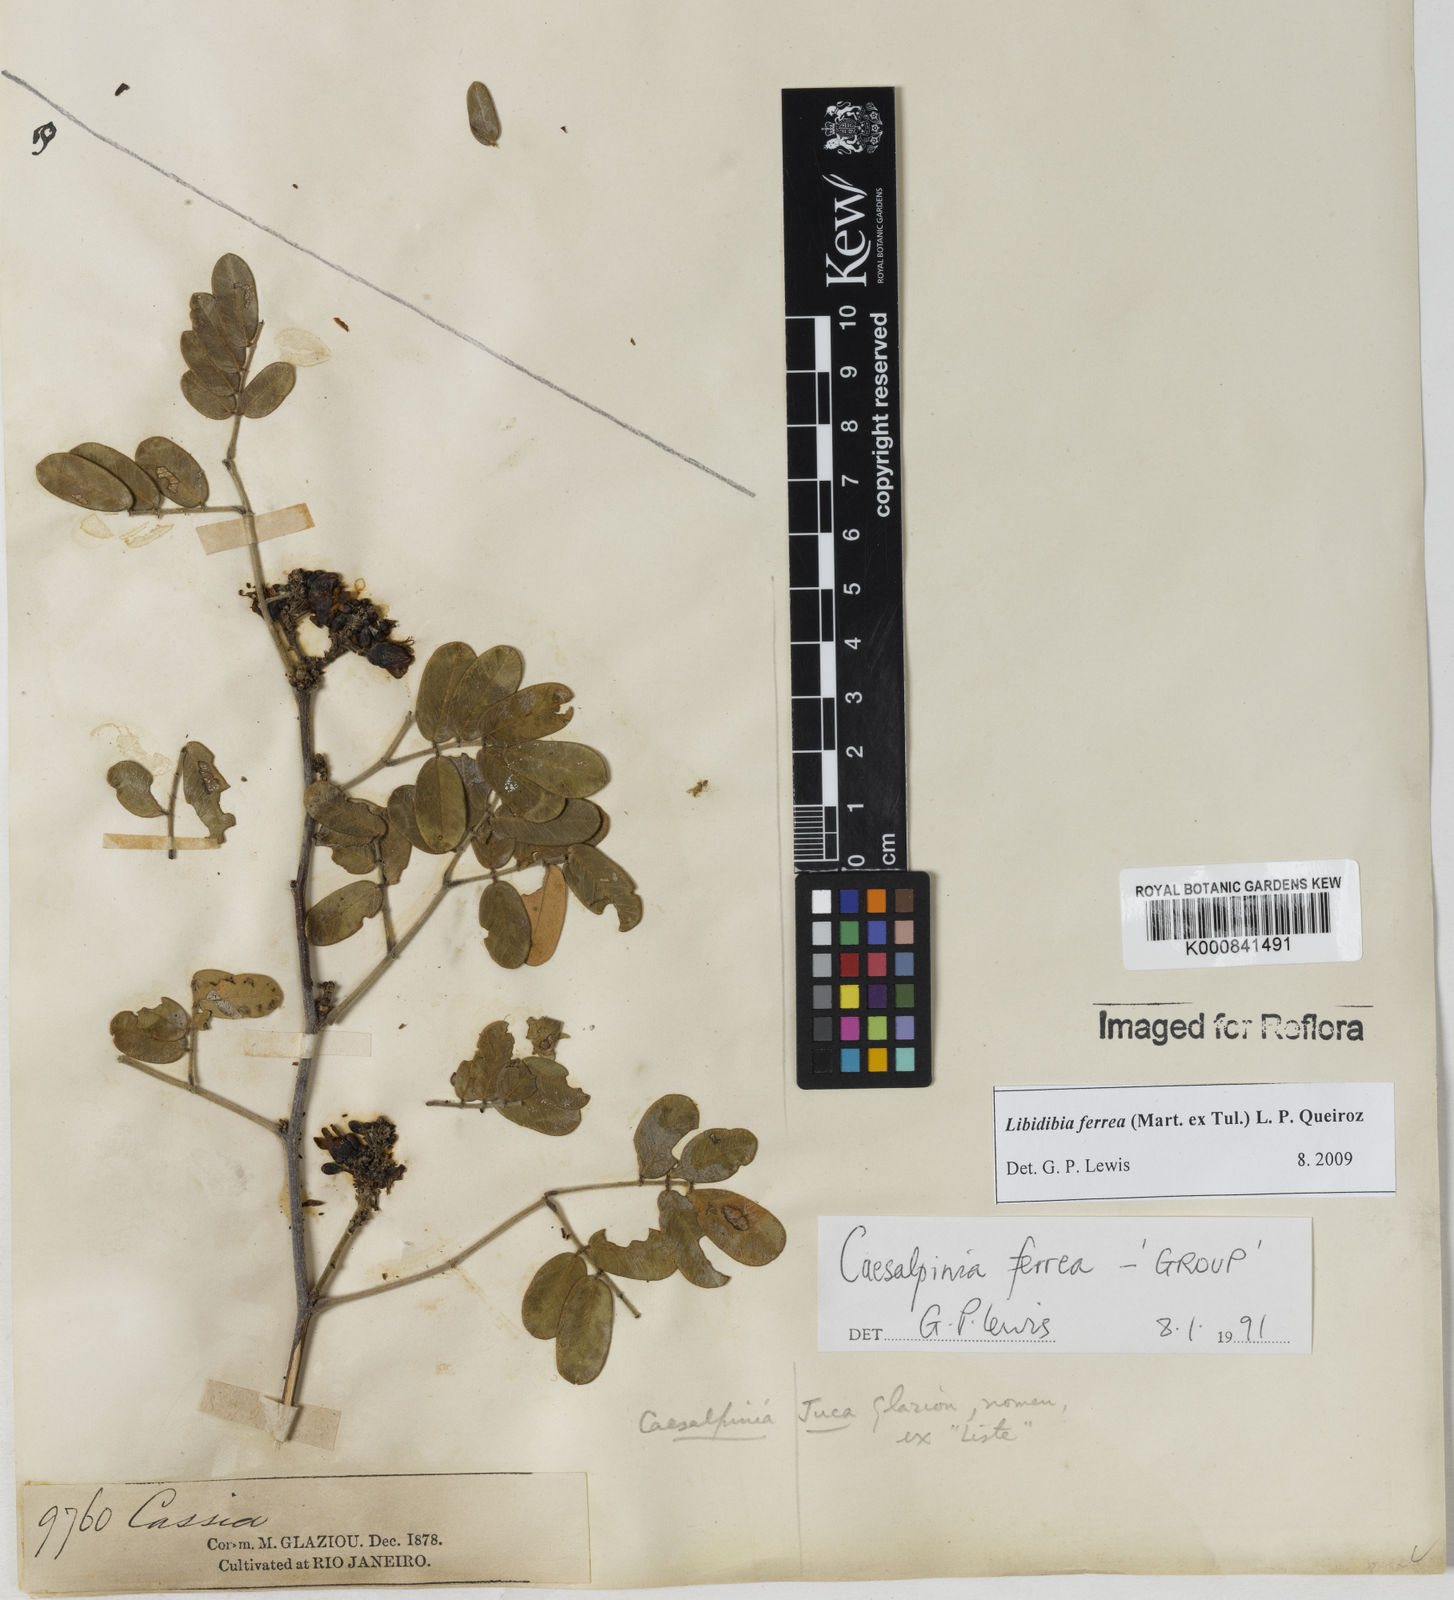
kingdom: Plantae
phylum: Tracheophyta
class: Magnoliopsida
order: Fabales
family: Fabaceae
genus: Libidibia
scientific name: Libidibia ferrea
